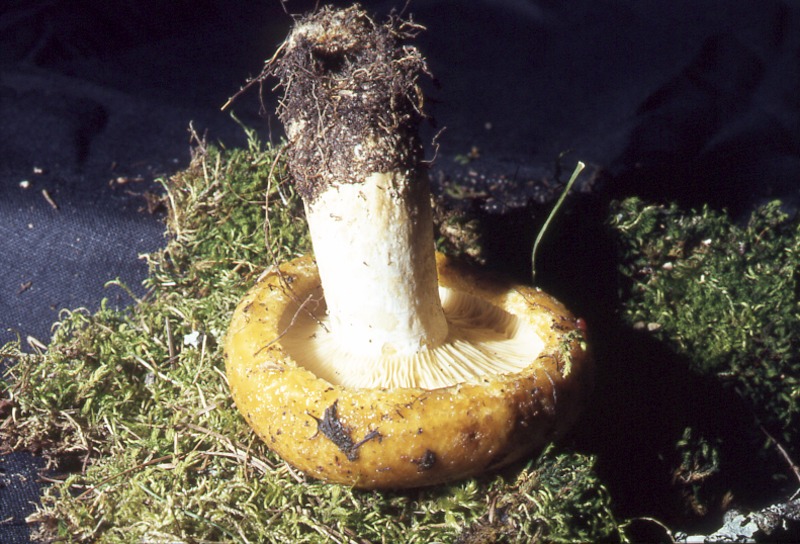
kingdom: Fungi
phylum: Basidiomycota
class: Agaricomycetes
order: Russulales
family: Russulaceae
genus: Lactarius
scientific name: Lactarius scrobiculatus
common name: Spotted milkcap
